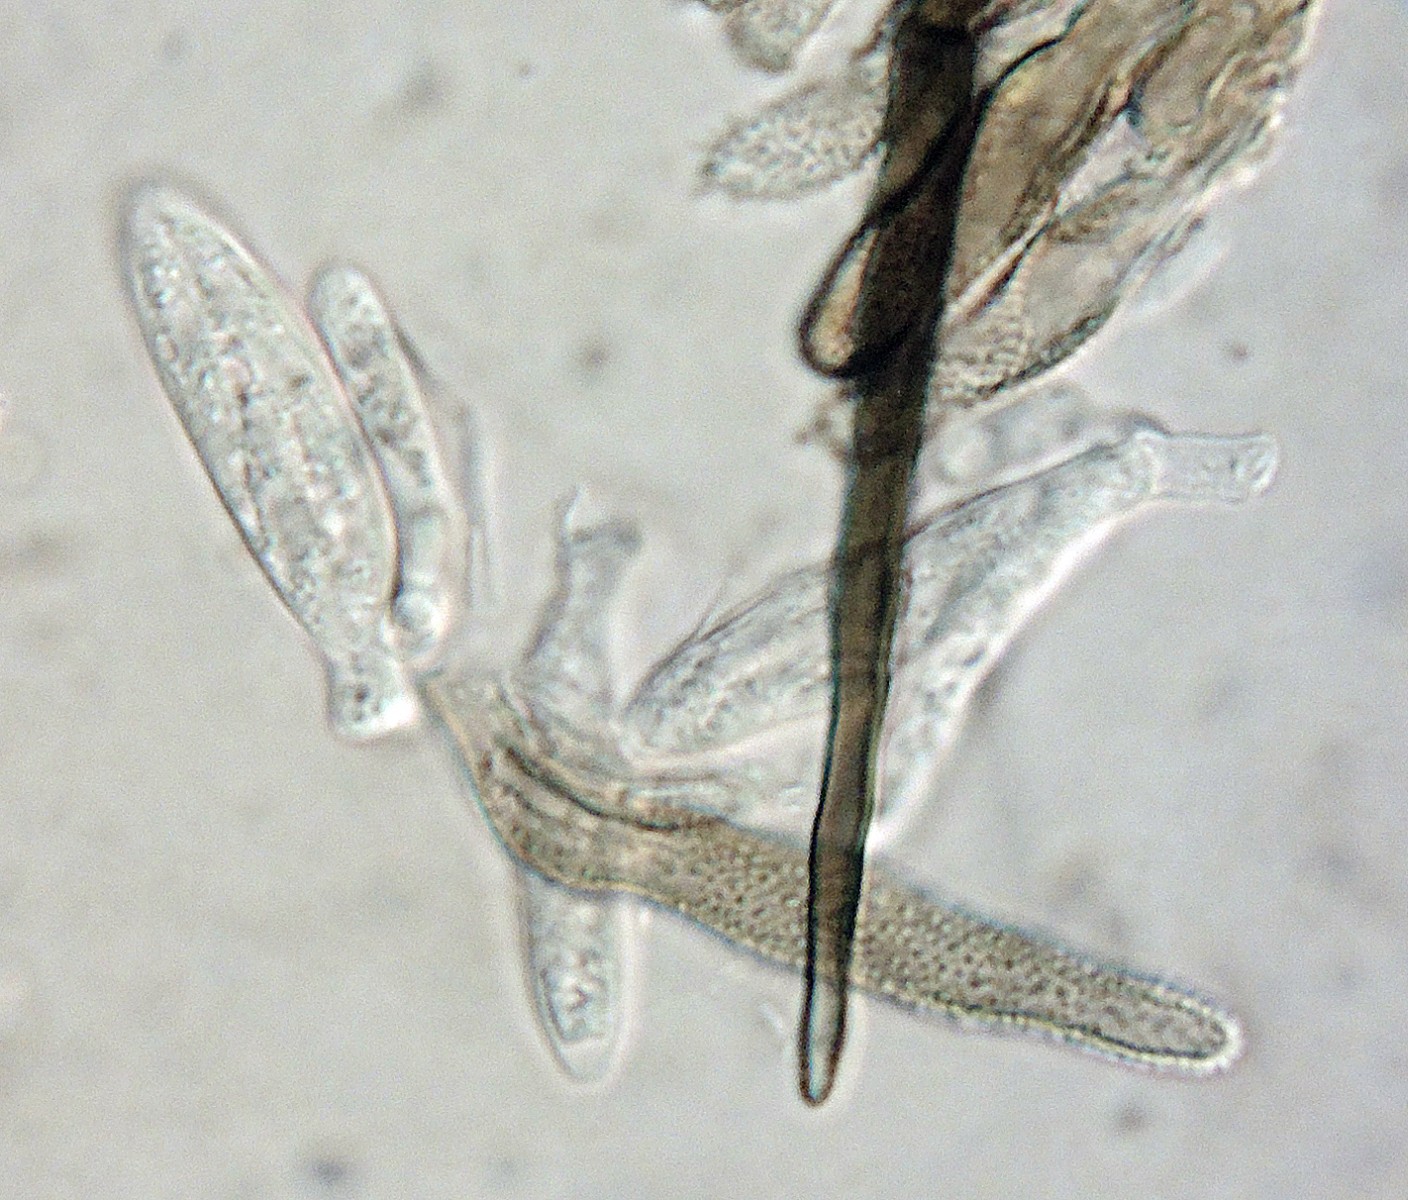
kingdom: Fungi
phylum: Ascomycota
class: Leotiomycetes
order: Helotiales
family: Hyphodiscaceae
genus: Venturiocistella
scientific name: Venturiocistella pini
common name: fyrre-tveskægskive
